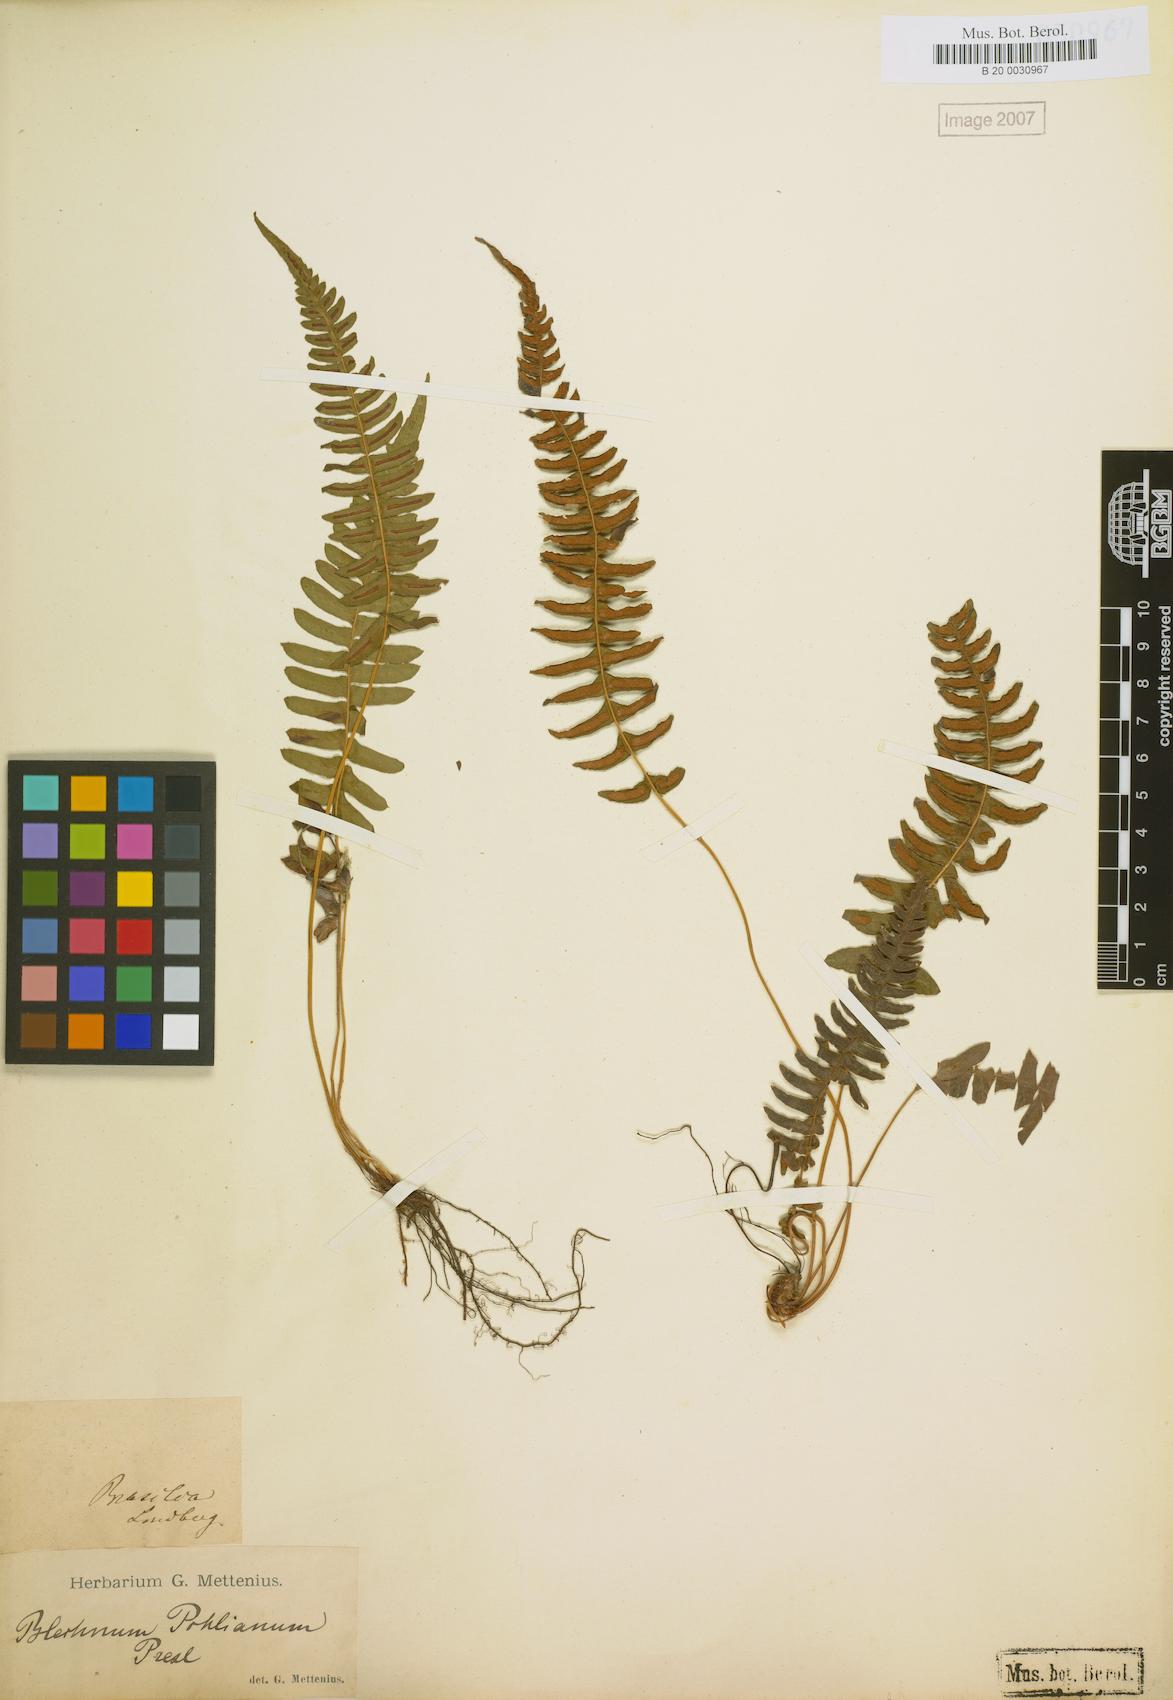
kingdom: Plantae
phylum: Tracheophyta
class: Polypodiopsida
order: Polypodiales
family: Blechnaceae
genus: Blechnum
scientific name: Blechnum polypodioides
